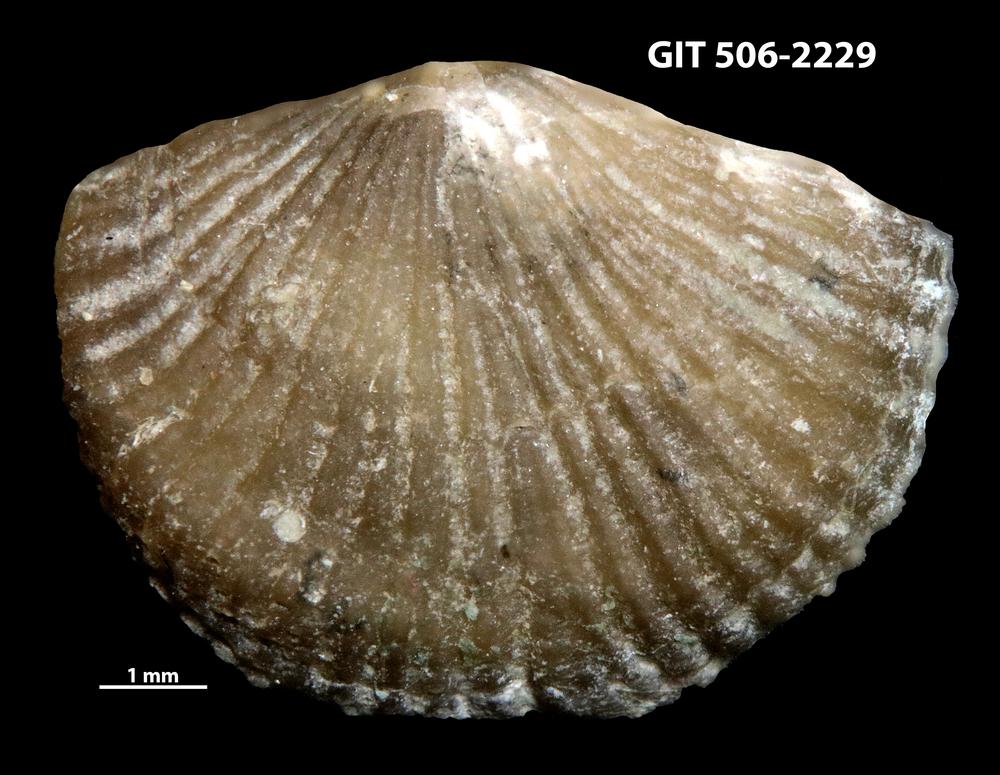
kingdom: Animalia
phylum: Brachiopoda
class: Rhynchonellata
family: Skenidiidae
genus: Skenidioides
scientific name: Skenidioides hymiri
